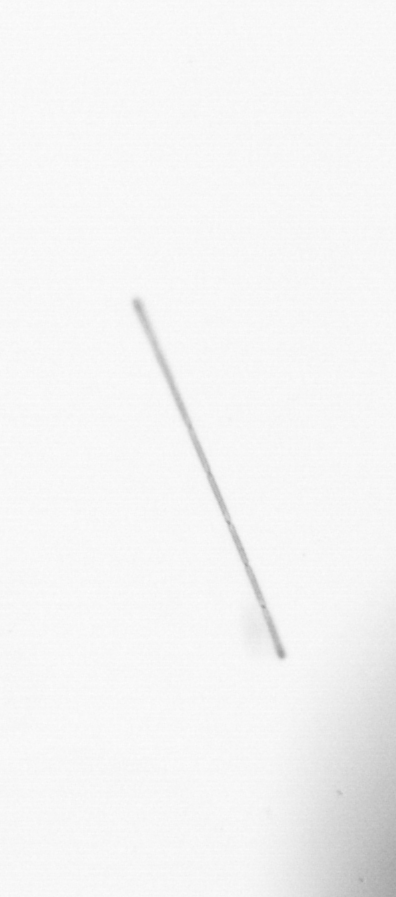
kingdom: Chromista
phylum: Ochrophyta
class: Bacillariophyceae
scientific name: Bacillariophyceae
